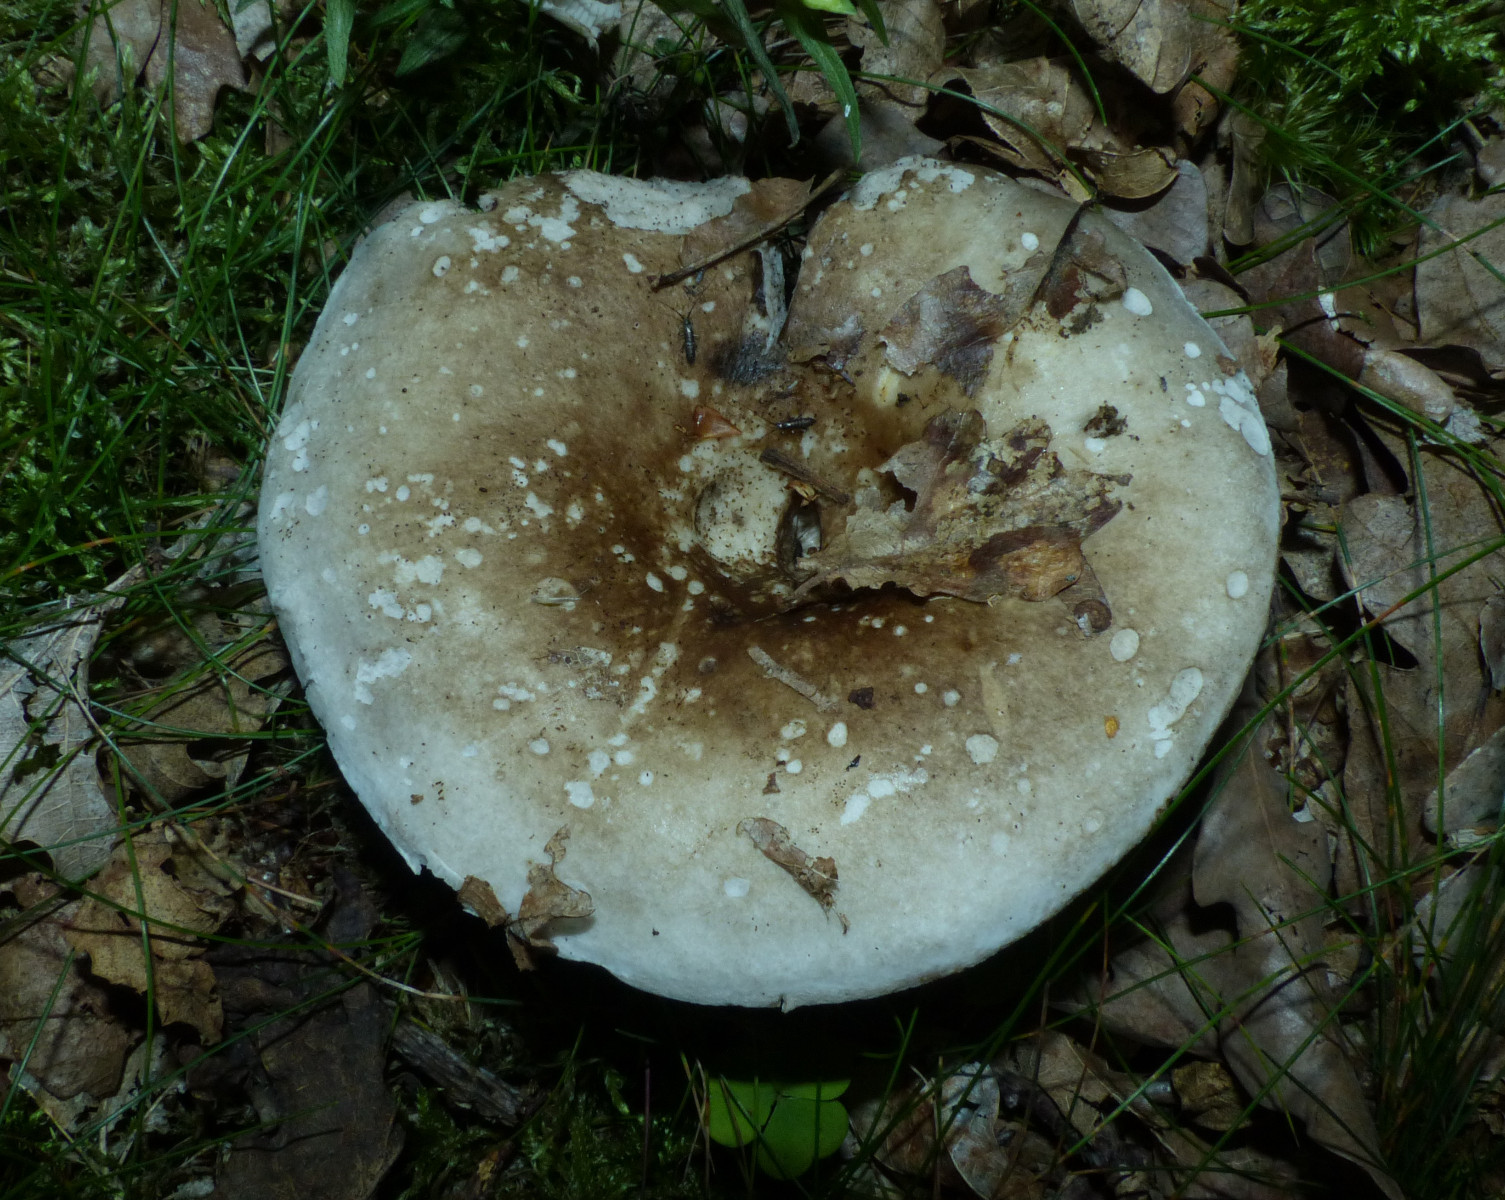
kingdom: Fungi
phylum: Basidiomycota
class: Agaricomycetes
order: Russulales
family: Russulaceae
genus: Russula
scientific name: Russula acrifolia
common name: skarpbladet skørhat
